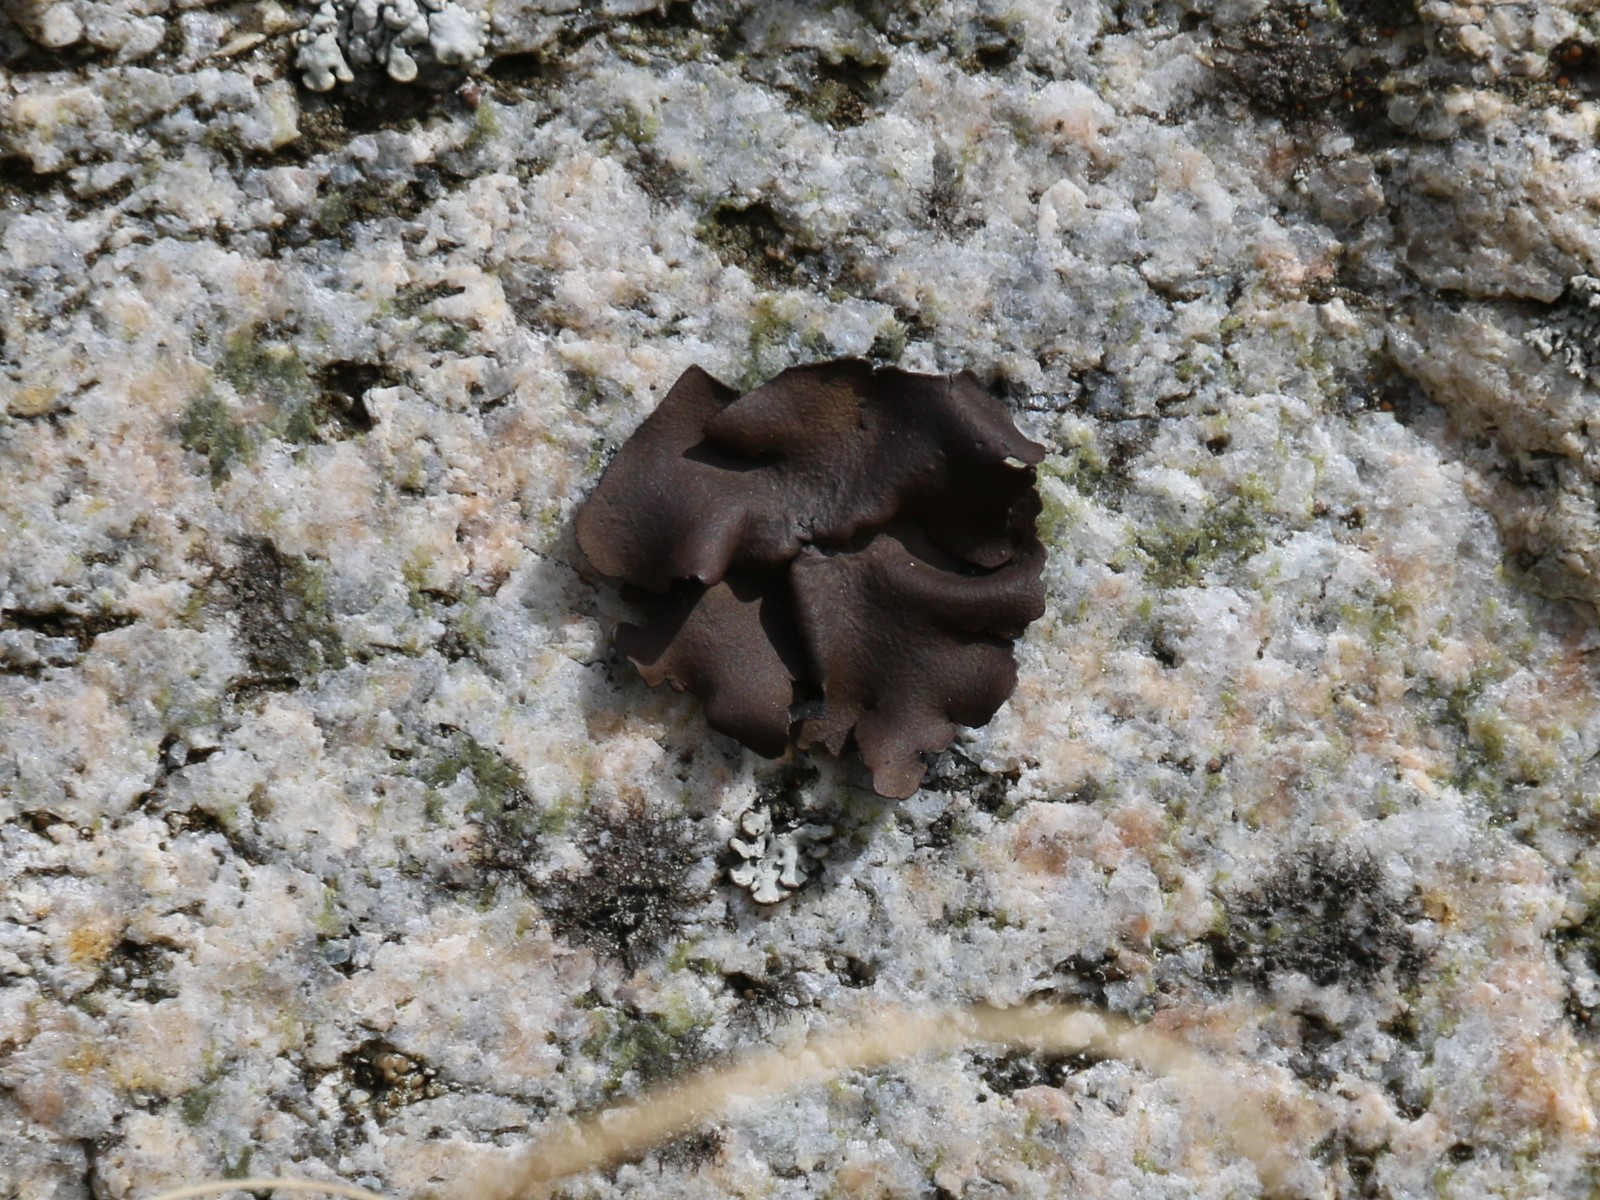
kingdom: Fungi
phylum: Ascomycota
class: Lecanoromycetes
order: Umbilicariales
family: Umbilicariaceae
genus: Umbilicaria
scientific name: Umbilicaria polyphylla
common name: glat navlelav
